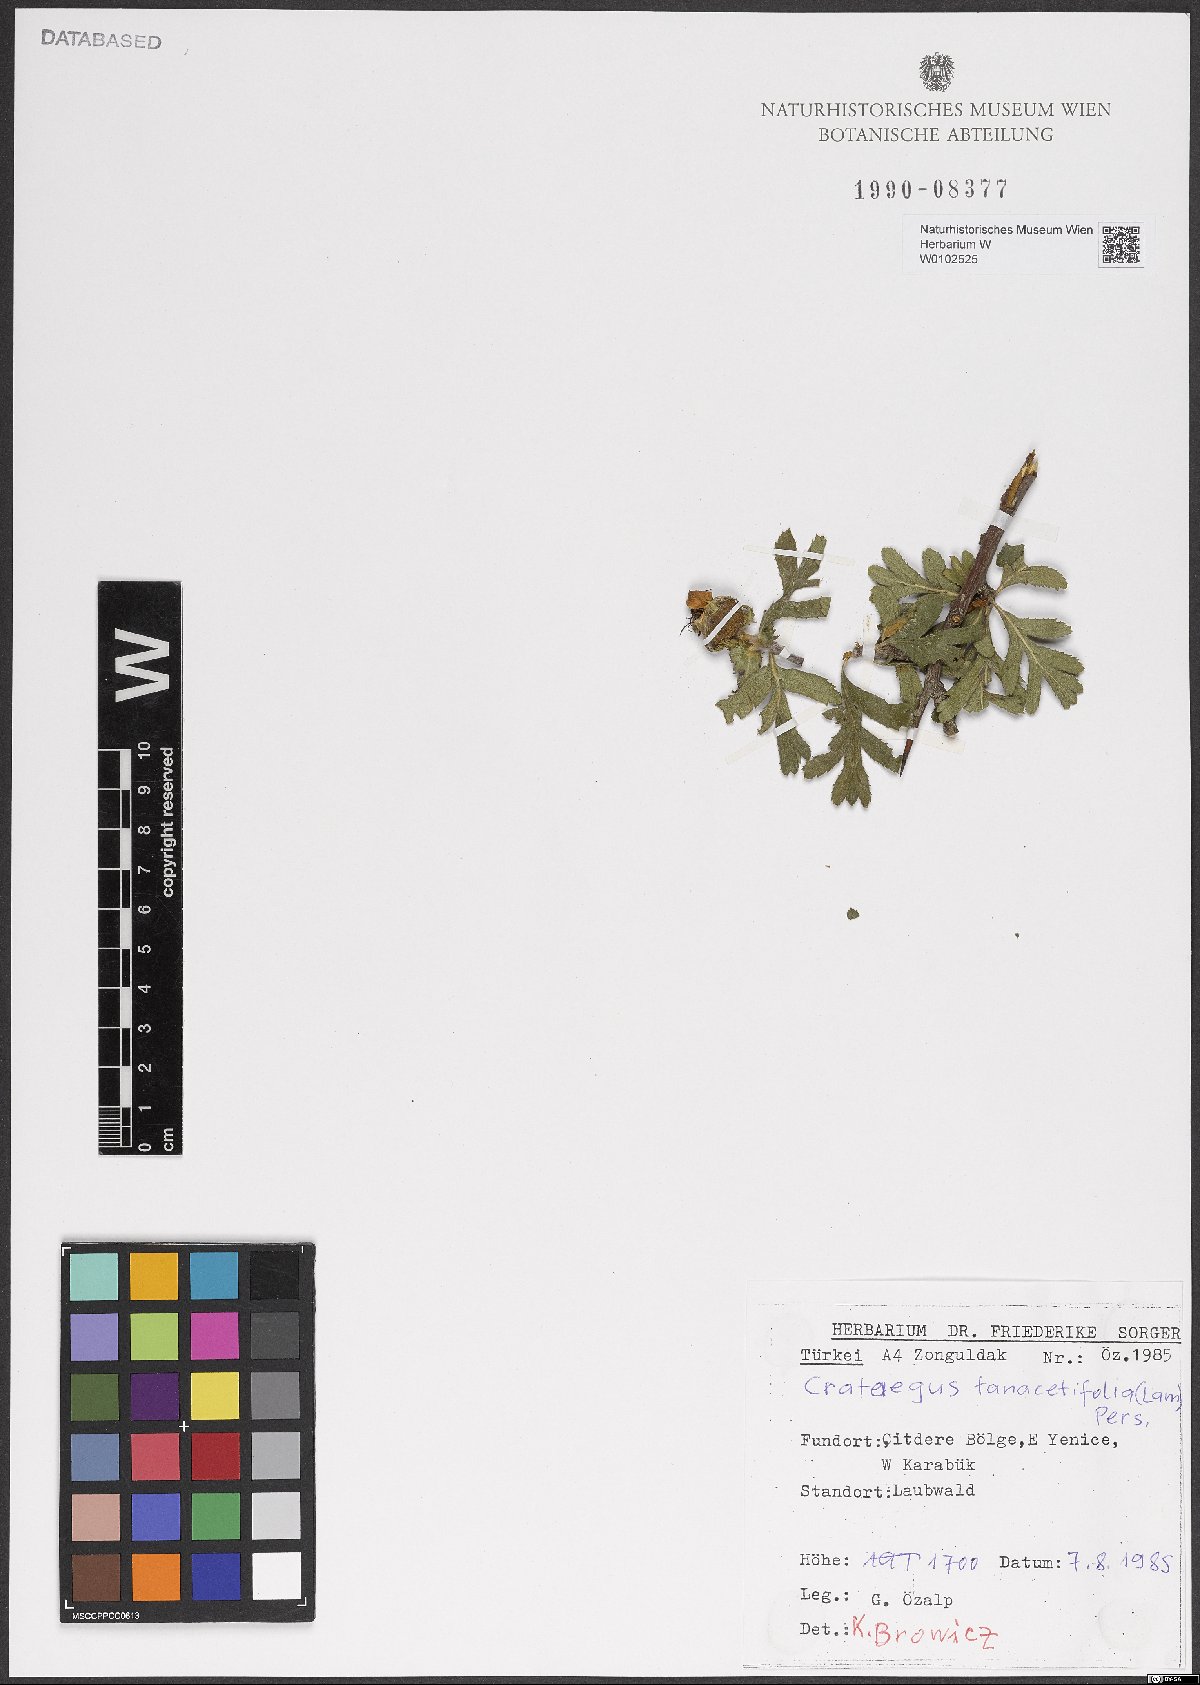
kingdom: Plantae
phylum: Tracheophyta
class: Magnoliopsida
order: Rosales
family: Rosaceae
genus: Crataegus
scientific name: Crataegus tanacetifolia
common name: Tansy-leaved thorn
